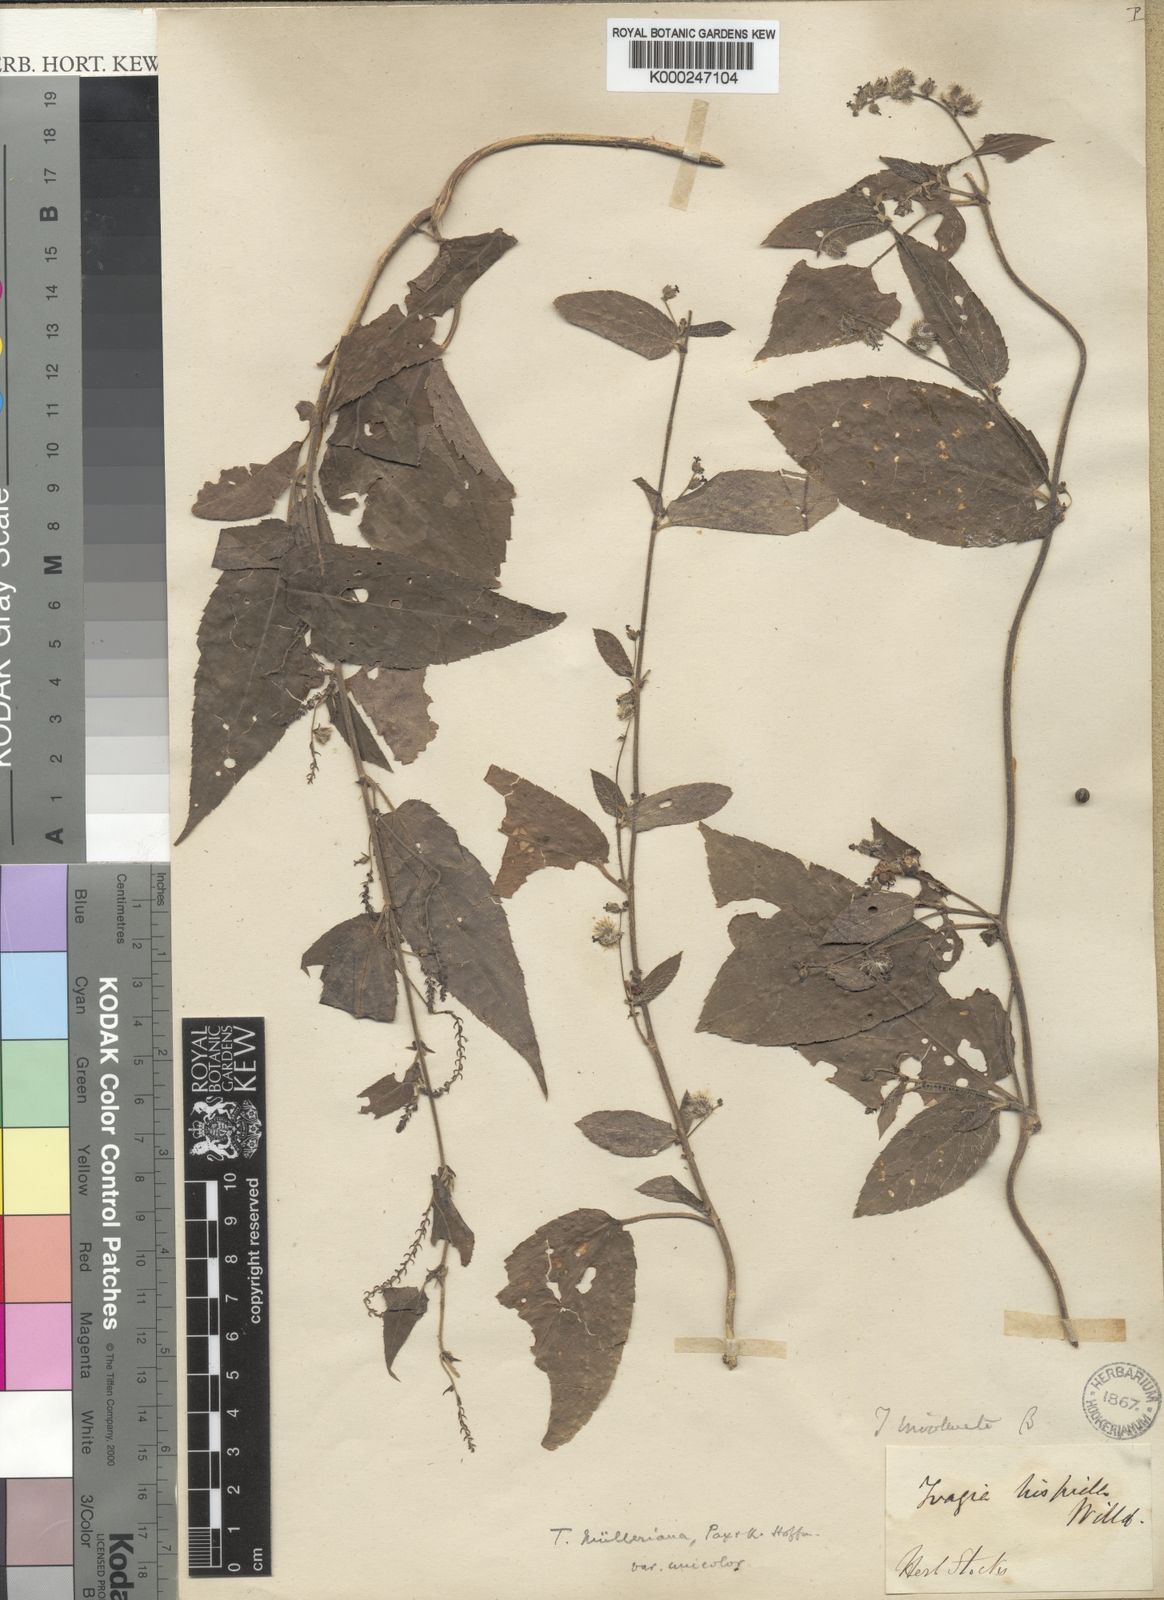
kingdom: Plantae
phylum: Tracheophyta
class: Magnoliopsida
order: Malpighiales
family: Euphorbiaceae
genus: Tragia
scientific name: Tragia montana
